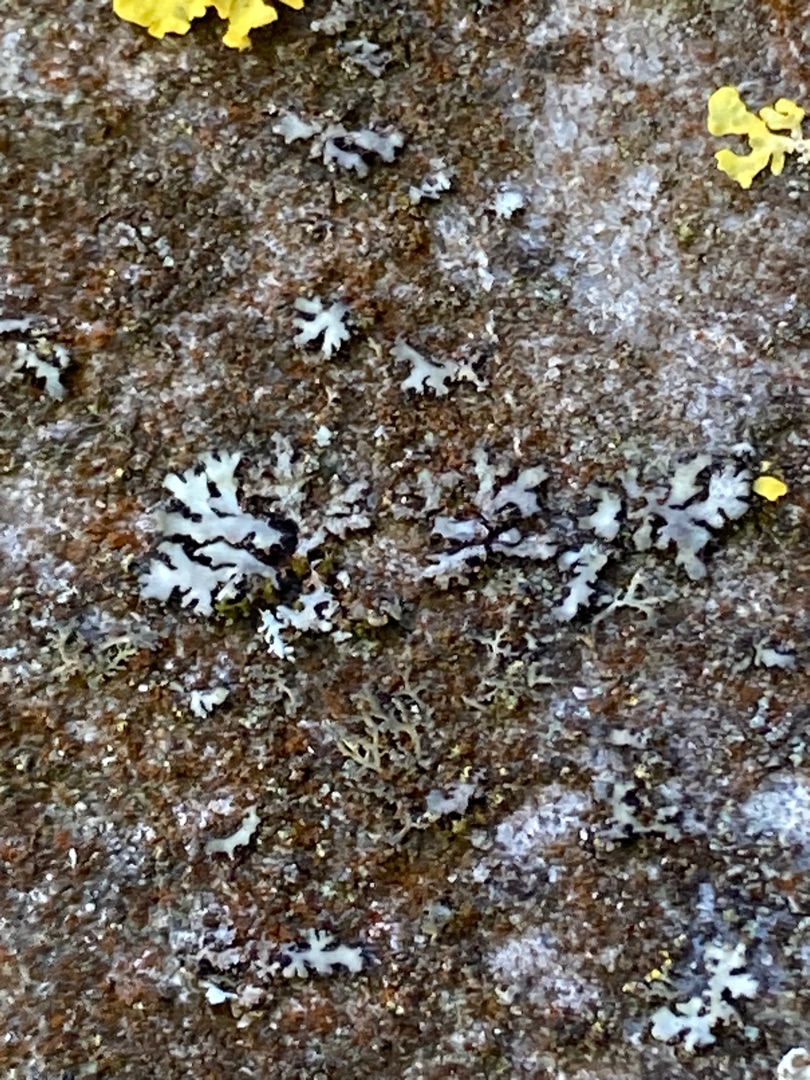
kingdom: Fungi
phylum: Ascomycota
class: Lecanoromycetes
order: Lecanorales
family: Parmeliaceae
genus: Parmelia
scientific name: Parmelia sulcata
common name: Rynket skållav
